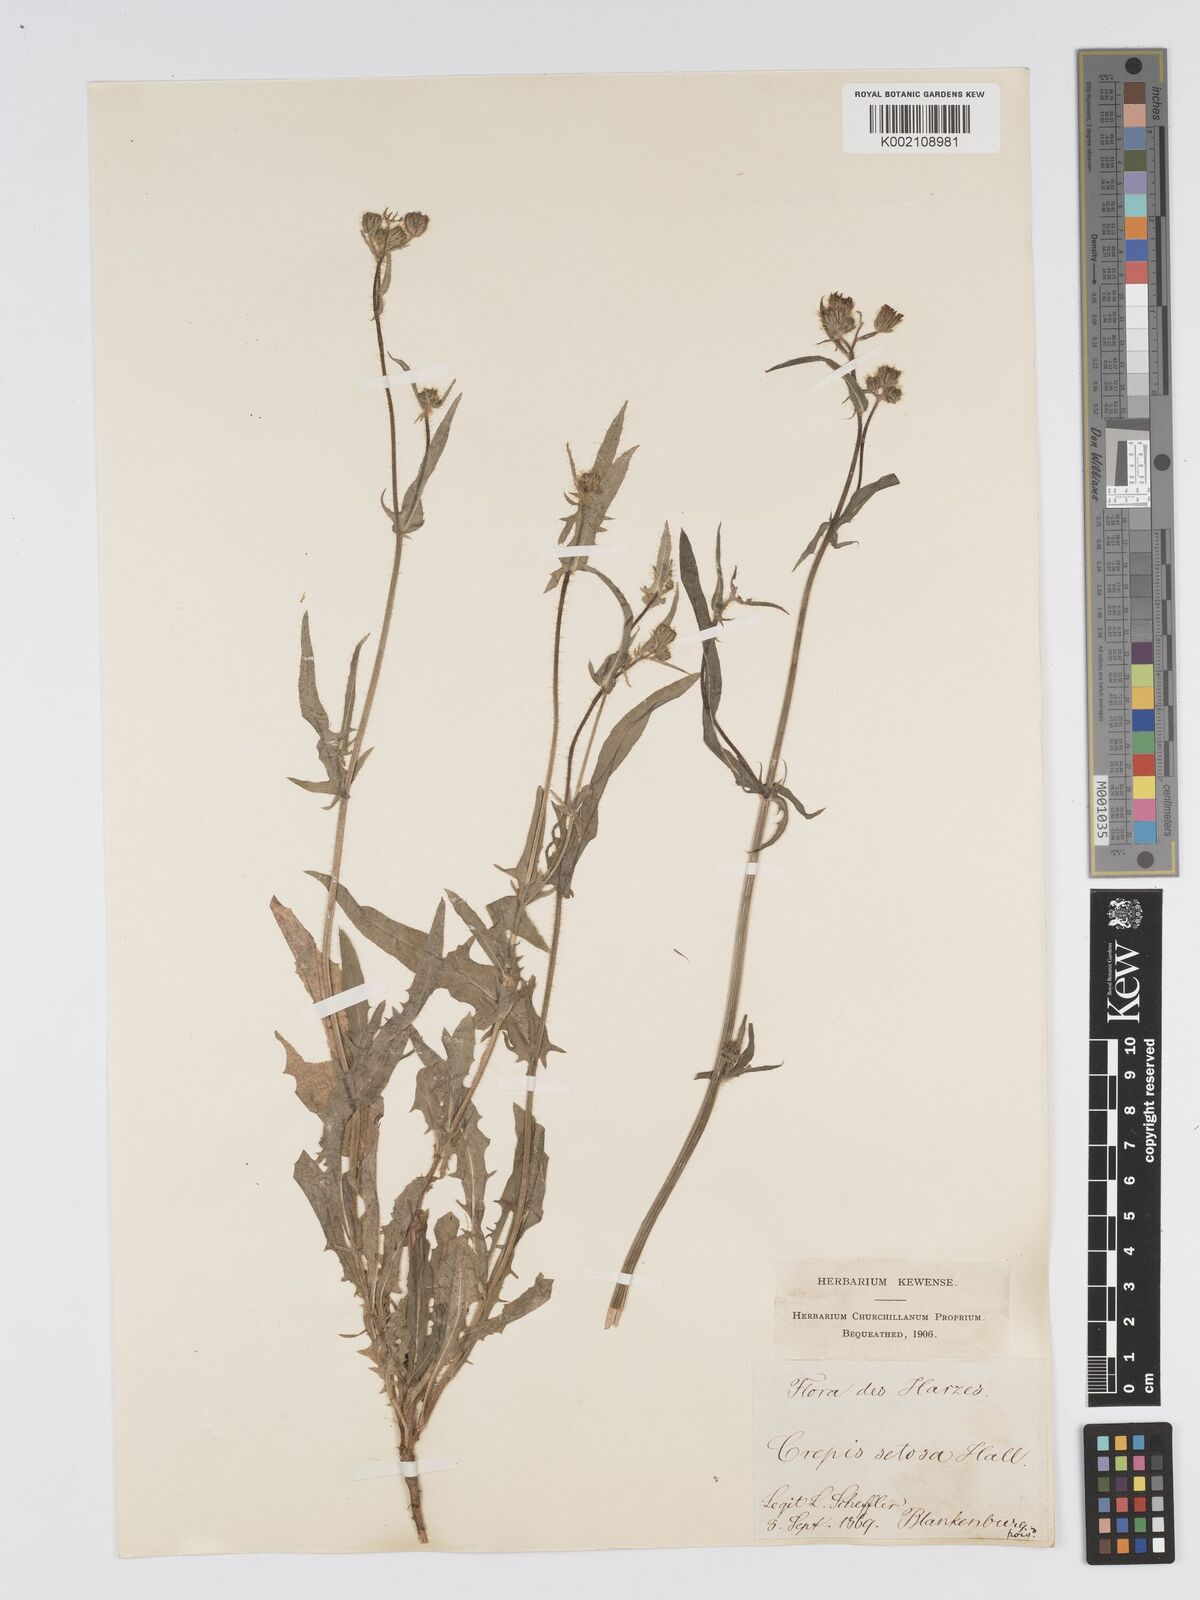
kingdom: Plantae
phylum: Tracheophyta
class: Magnoliopsida
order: Asterales
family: Asteraceae
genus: Crepis
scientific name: Crepis setosa
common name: Bristly hawk's-beard
